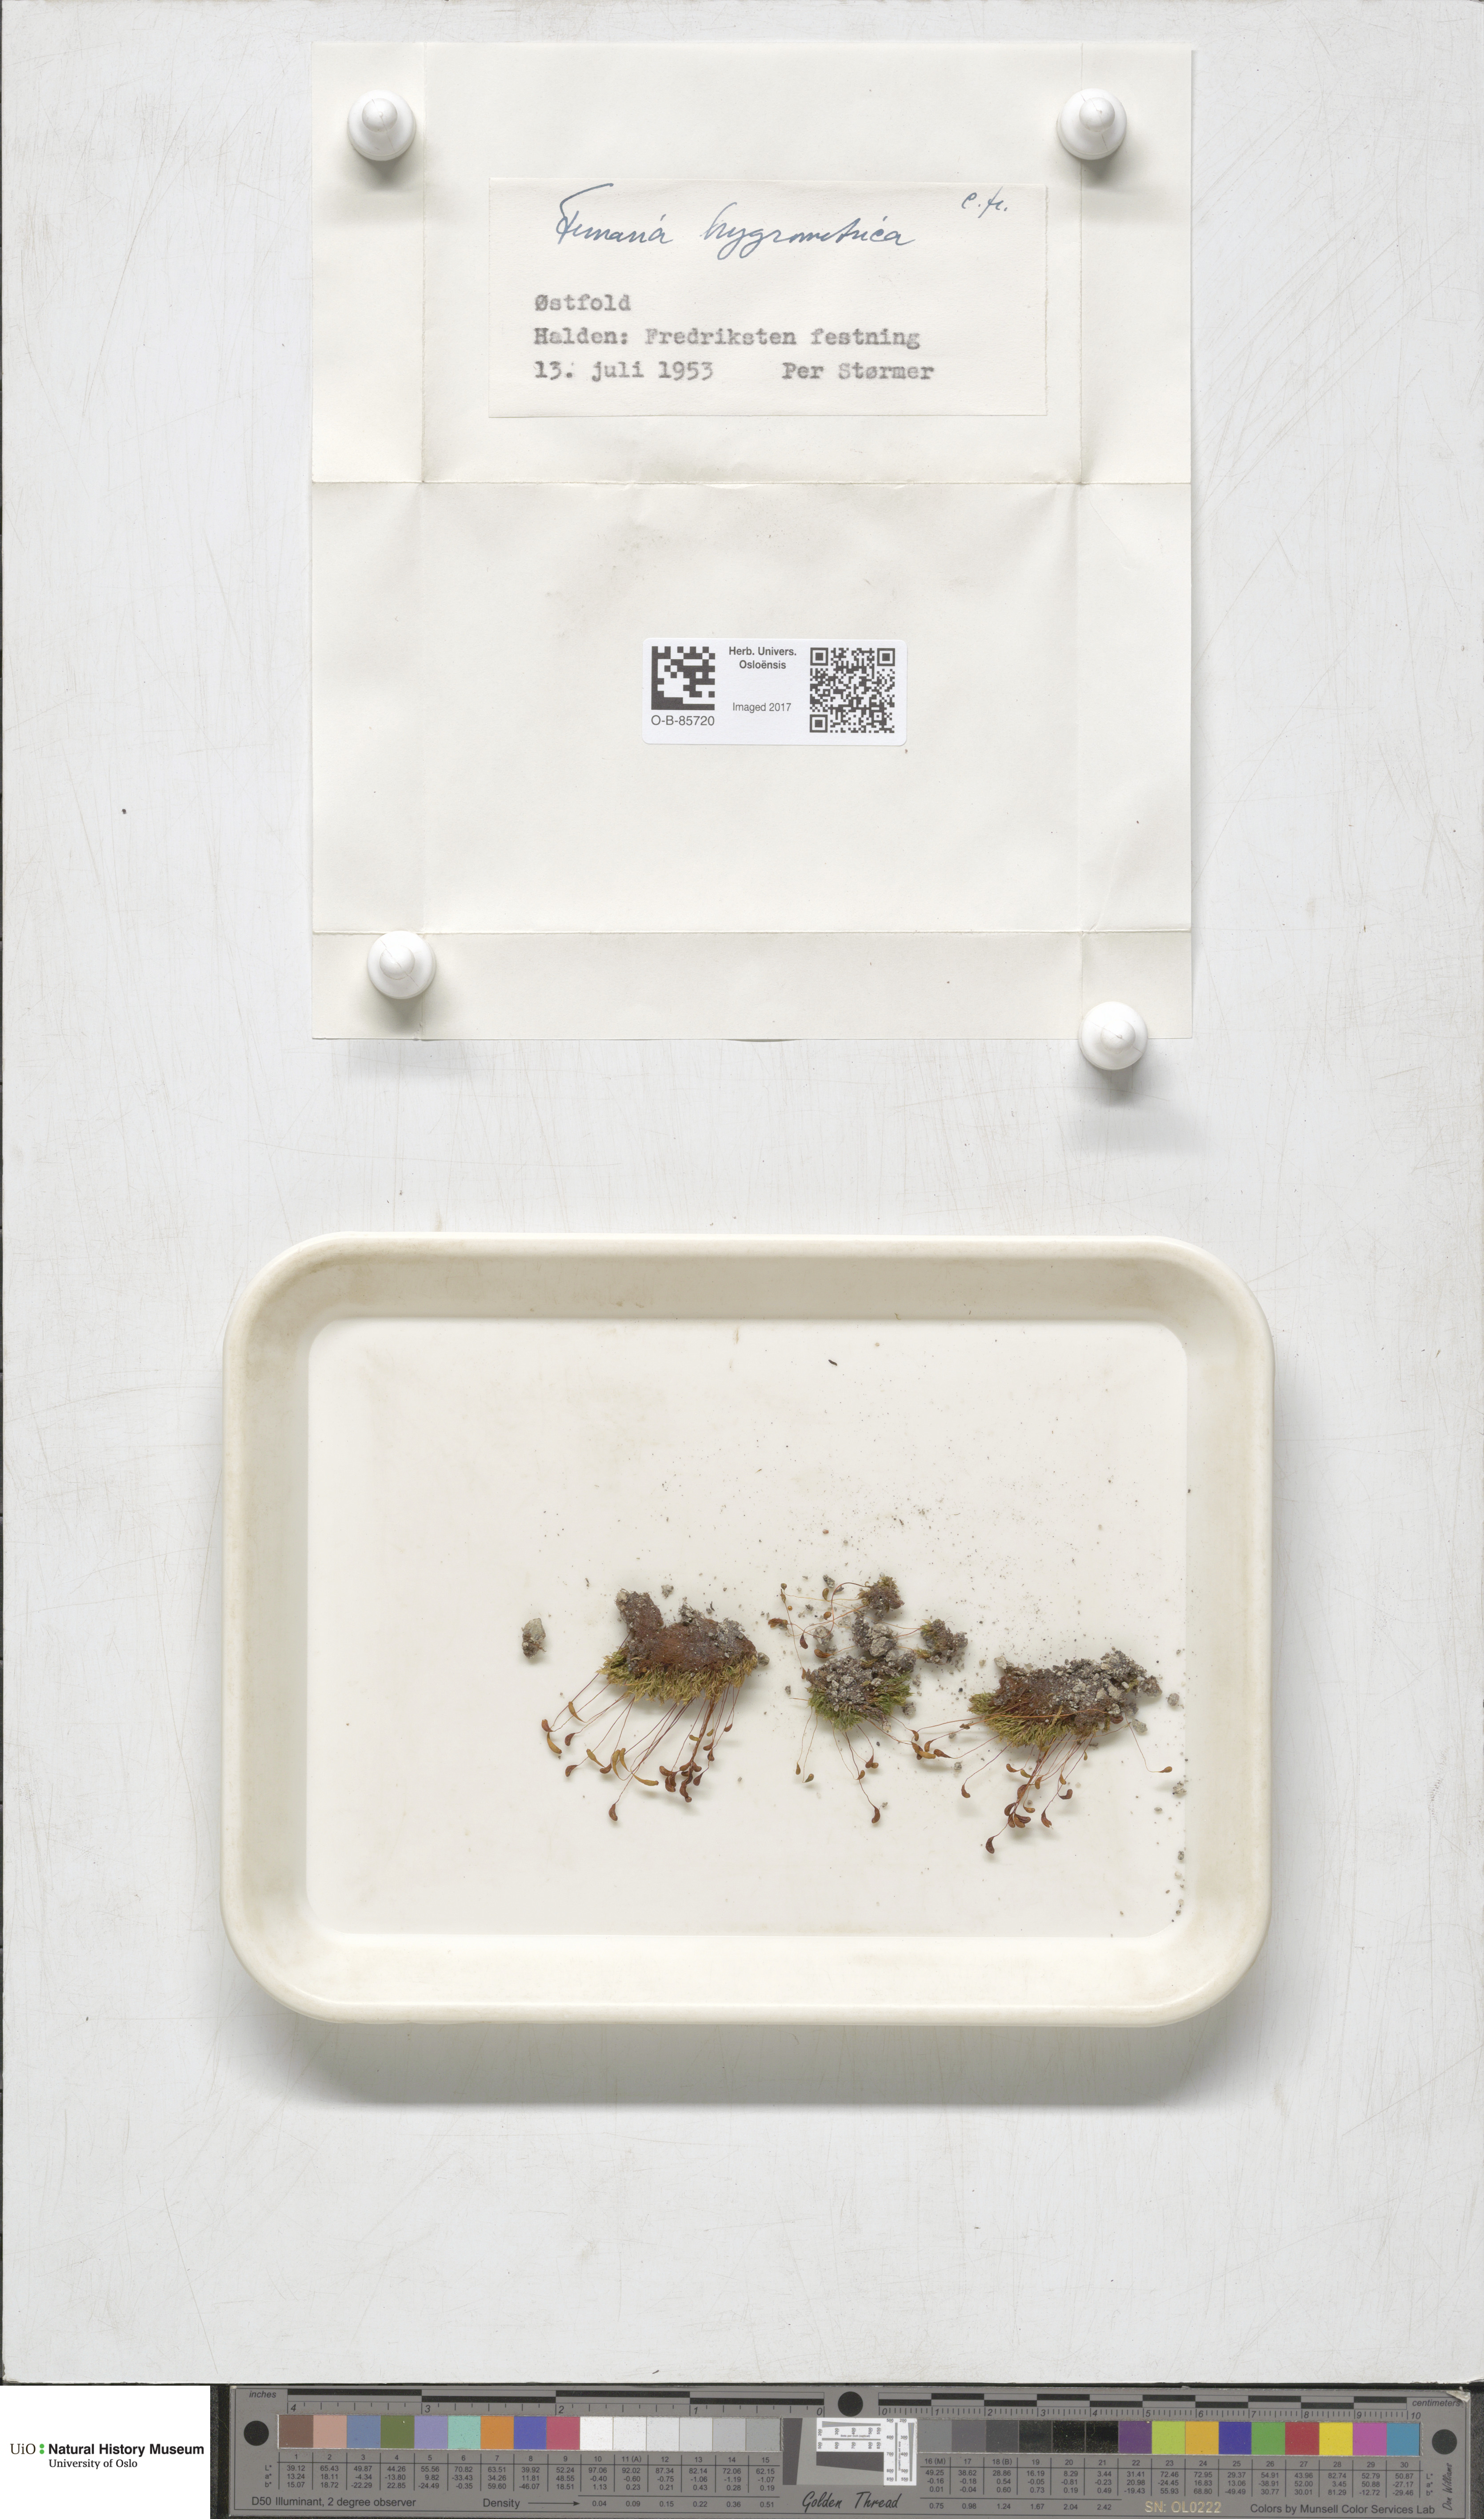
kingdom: Plantae
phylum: Bryophyta
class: Bryopsida
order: Funariales
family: Funariaceae
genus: Funaria
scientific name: Funaria hygrometrica
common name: Common cord moss
